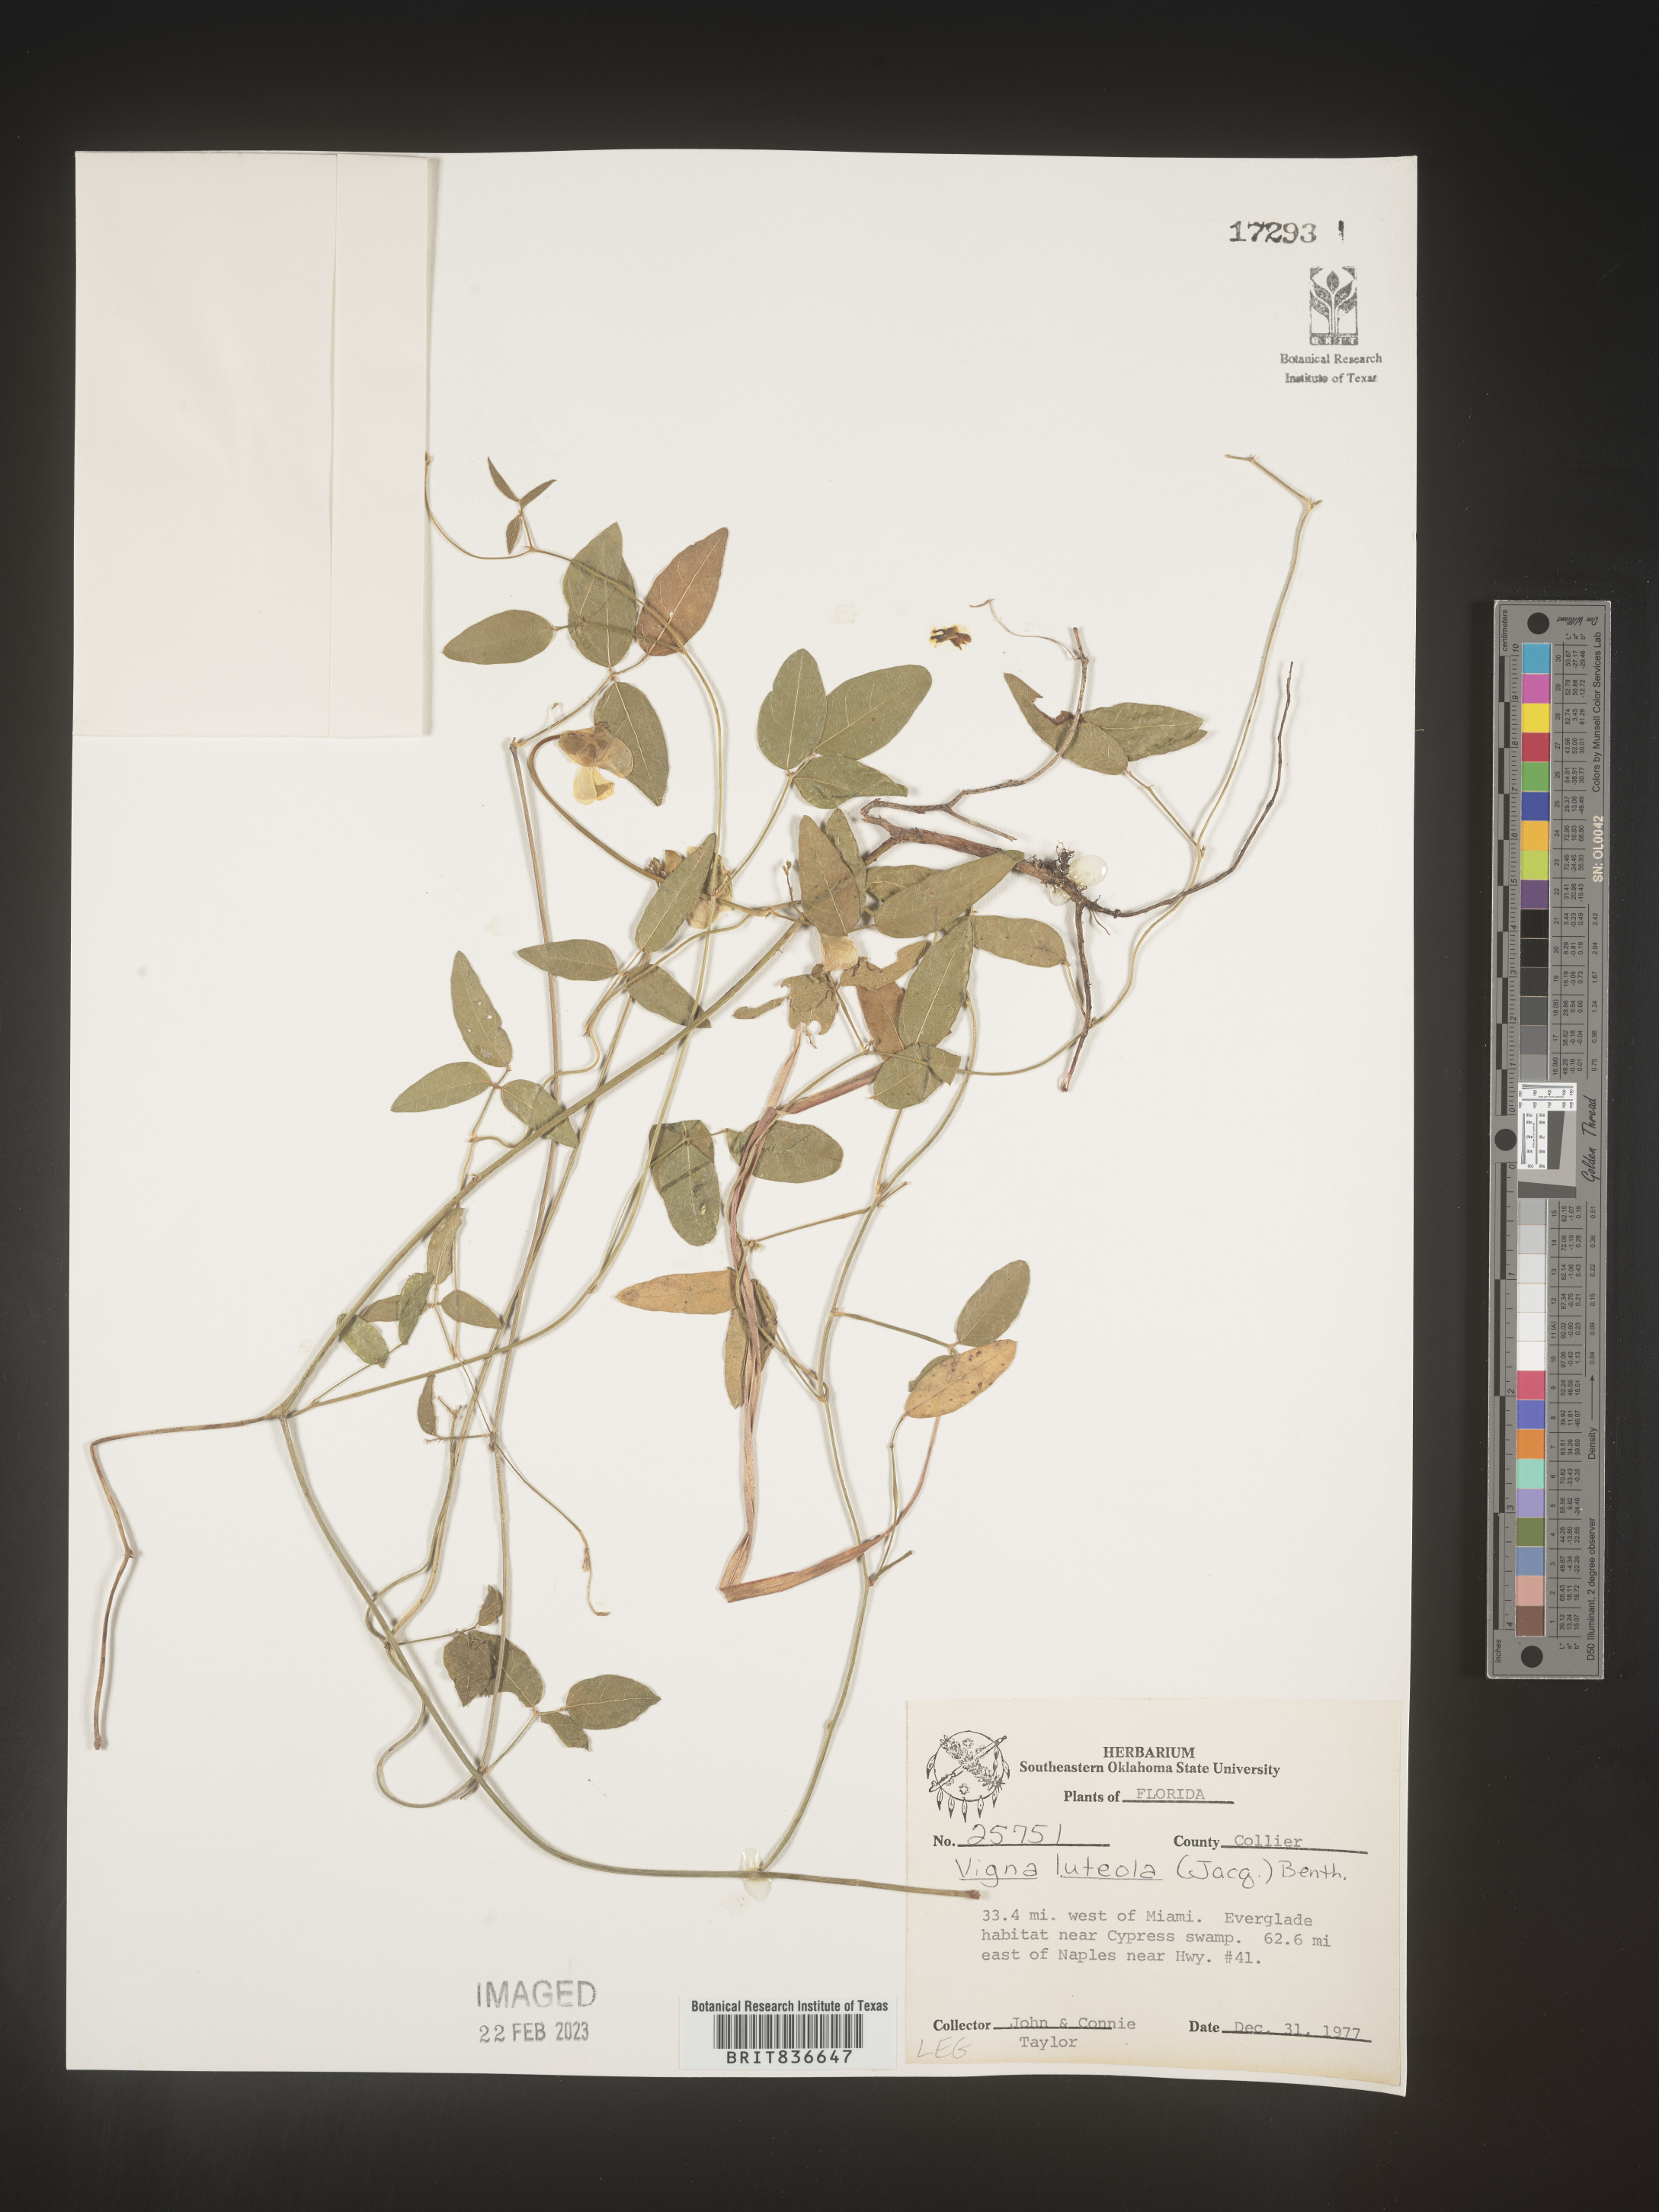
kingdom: Plantae
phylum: Tracheophyta
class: Magnoliopsida
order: Fabales
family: Fabaceae
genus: Vigna
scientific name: Vigna luteola
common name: Hairypod cowpea
